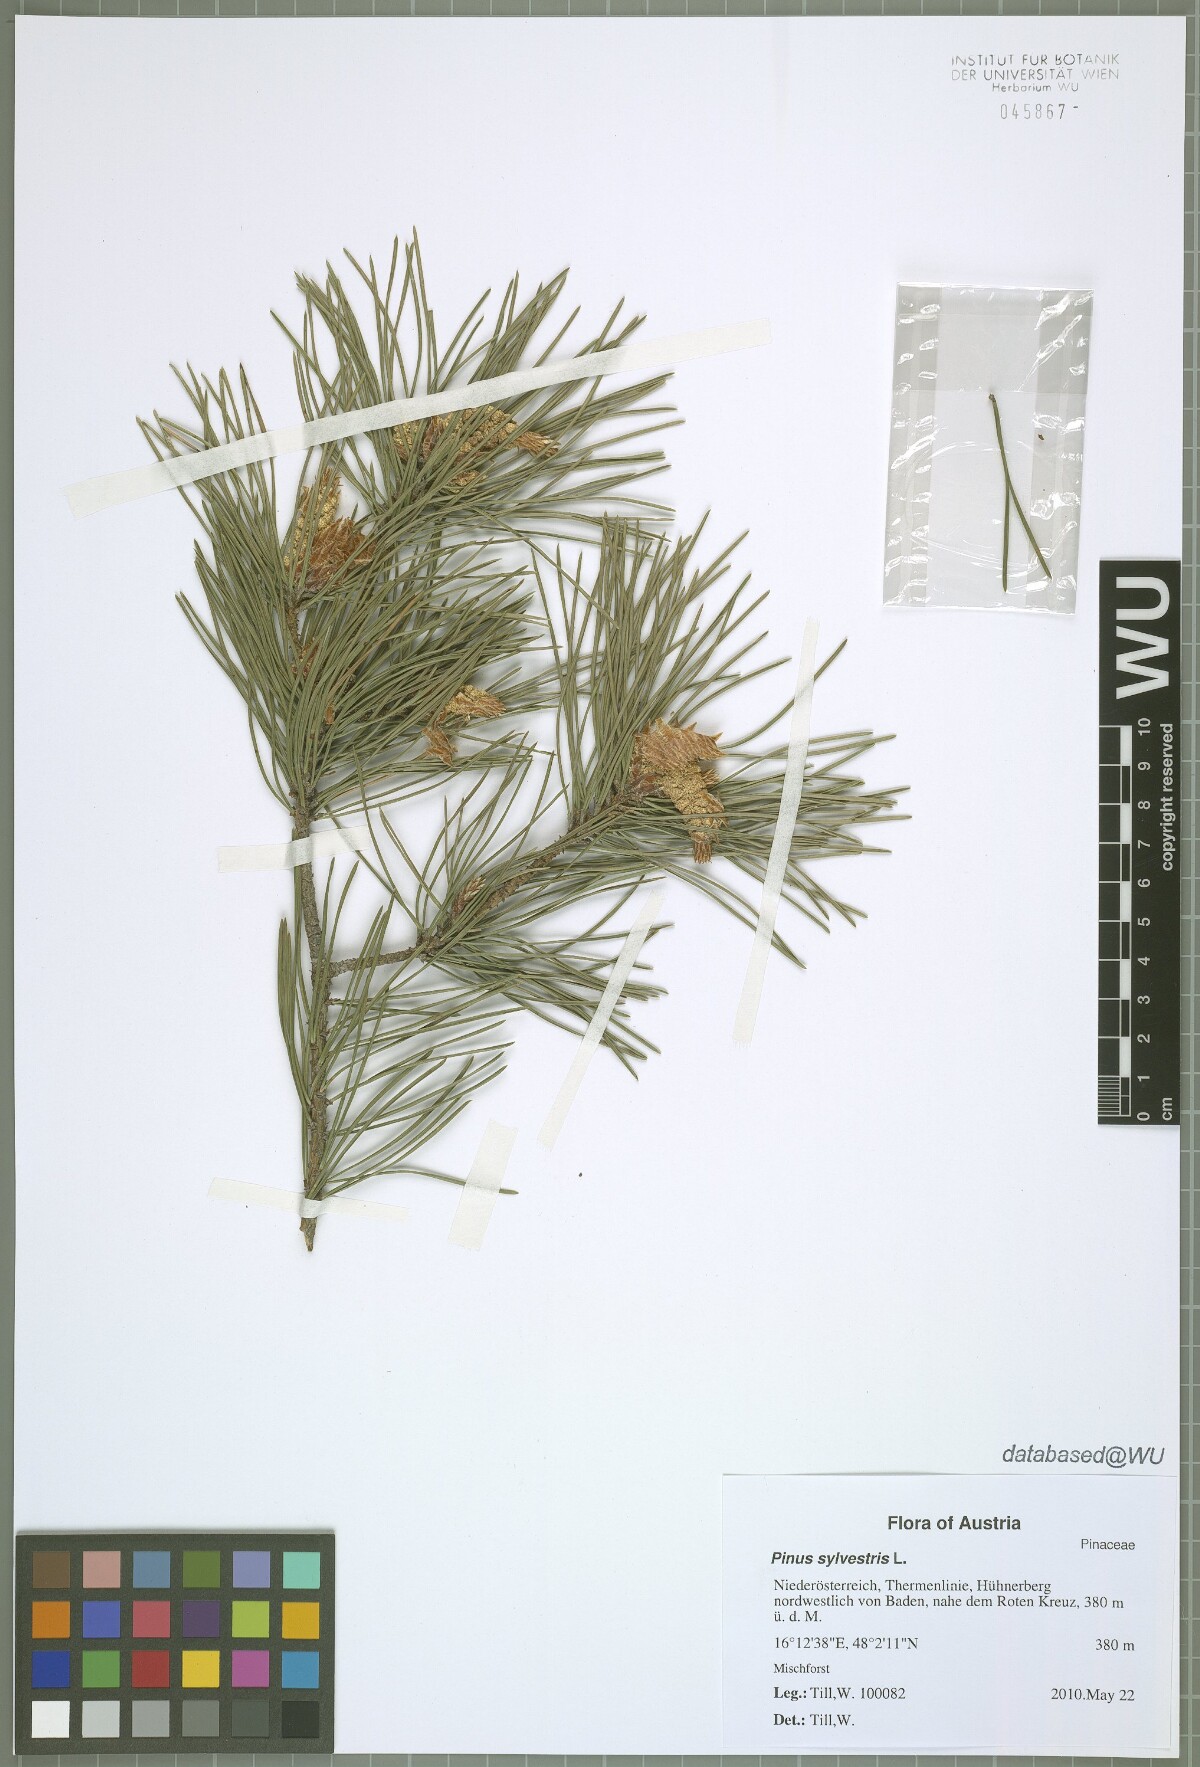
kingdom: Plantae
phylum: Tracheophyta
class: Pinopsida
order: Pinales
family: Pinaceae
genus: Pinus
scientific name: Pinus sylvestris
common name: Scots pine
